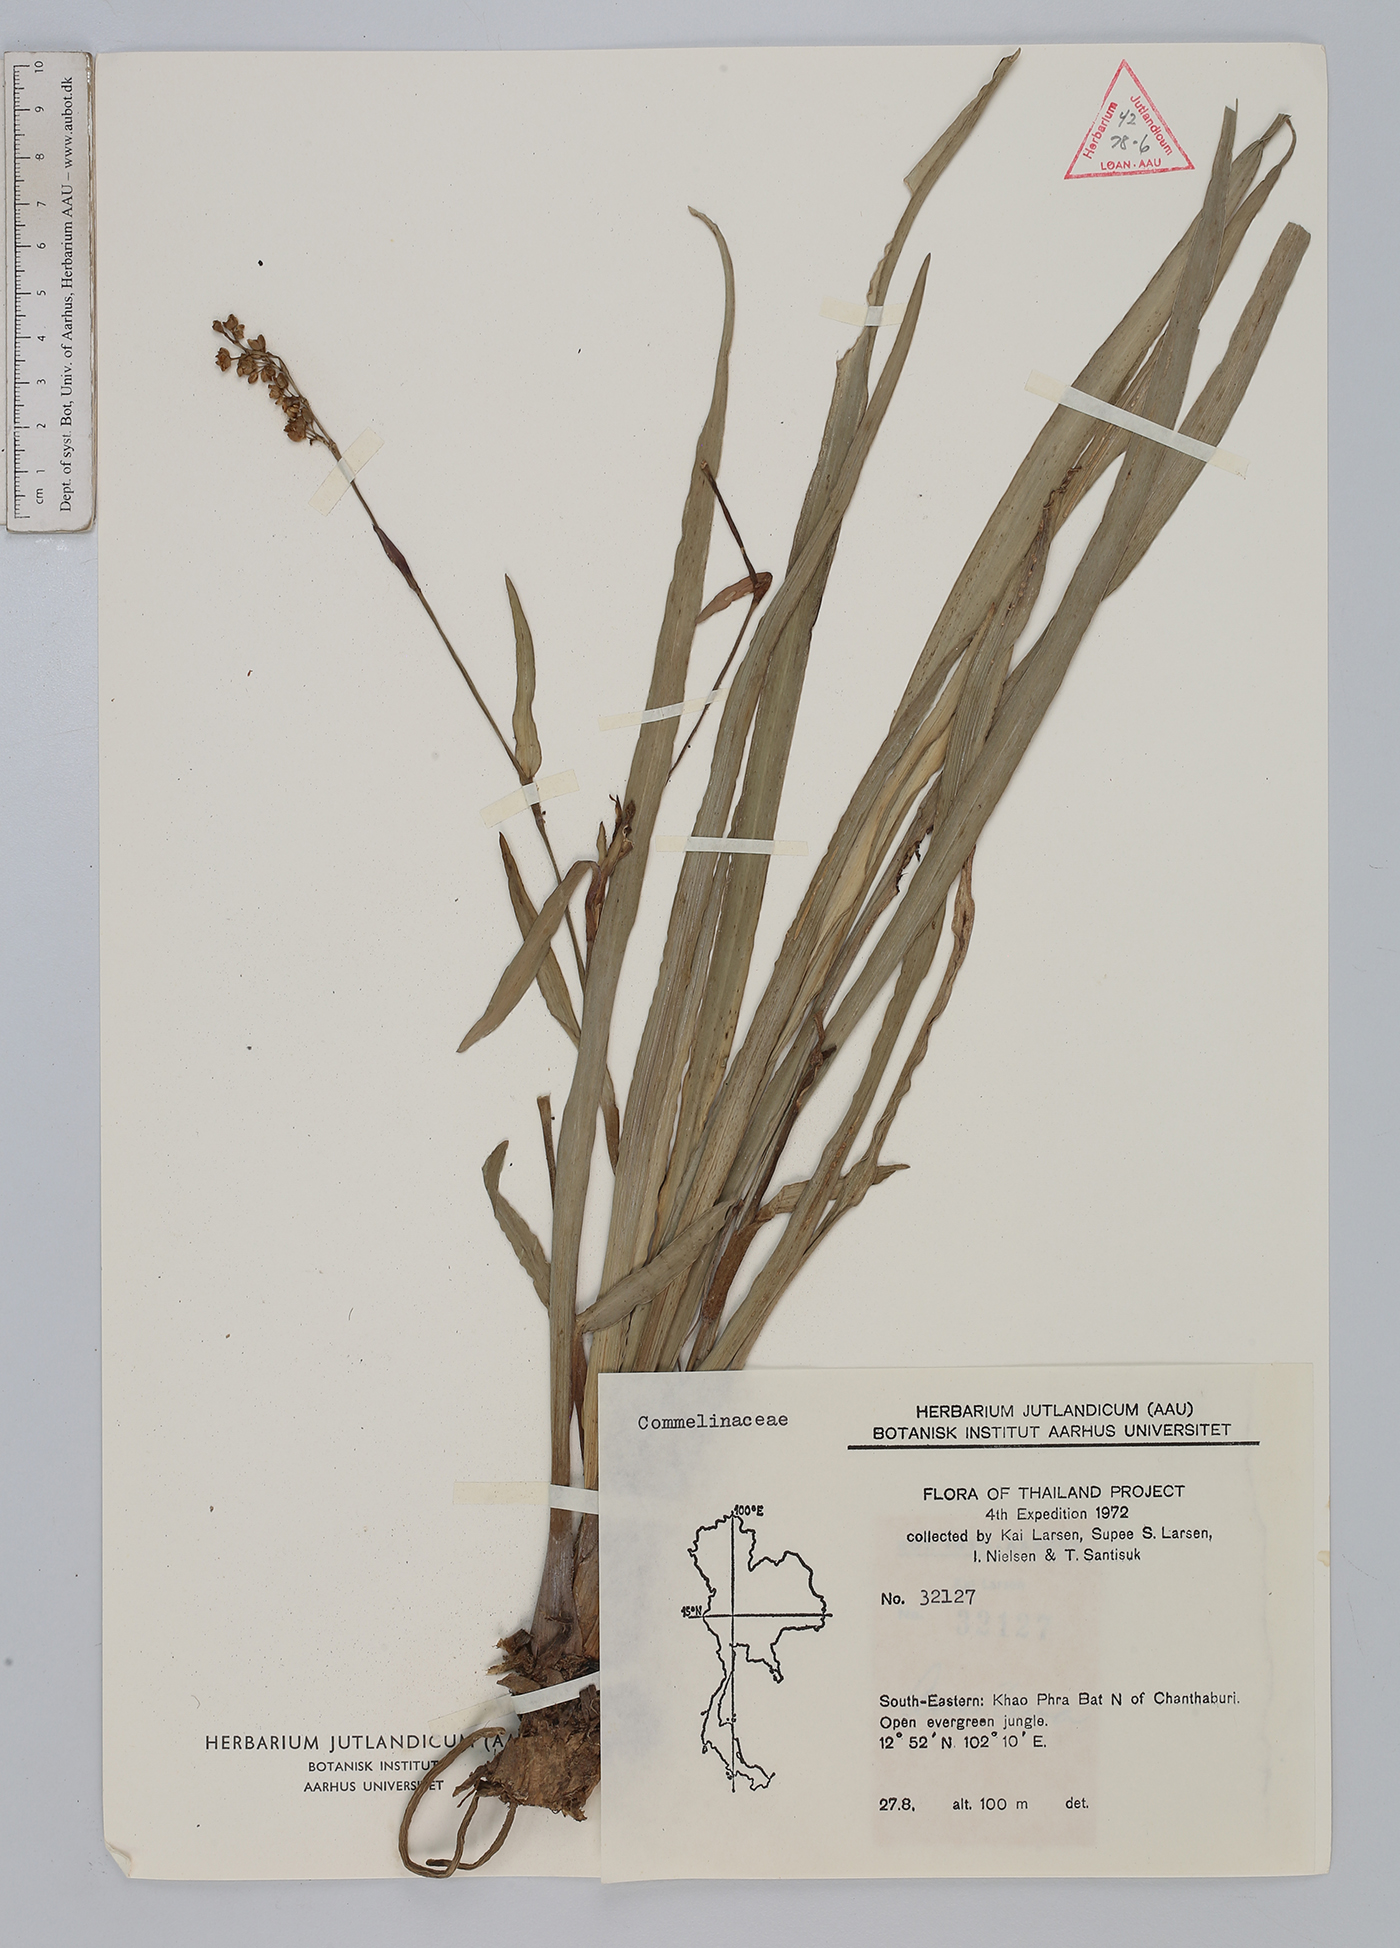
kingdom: Plantae
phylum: Tracheophyta
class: Liliopsida
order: Commelinales
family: Commelinaceae
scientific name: Commelinaceae
